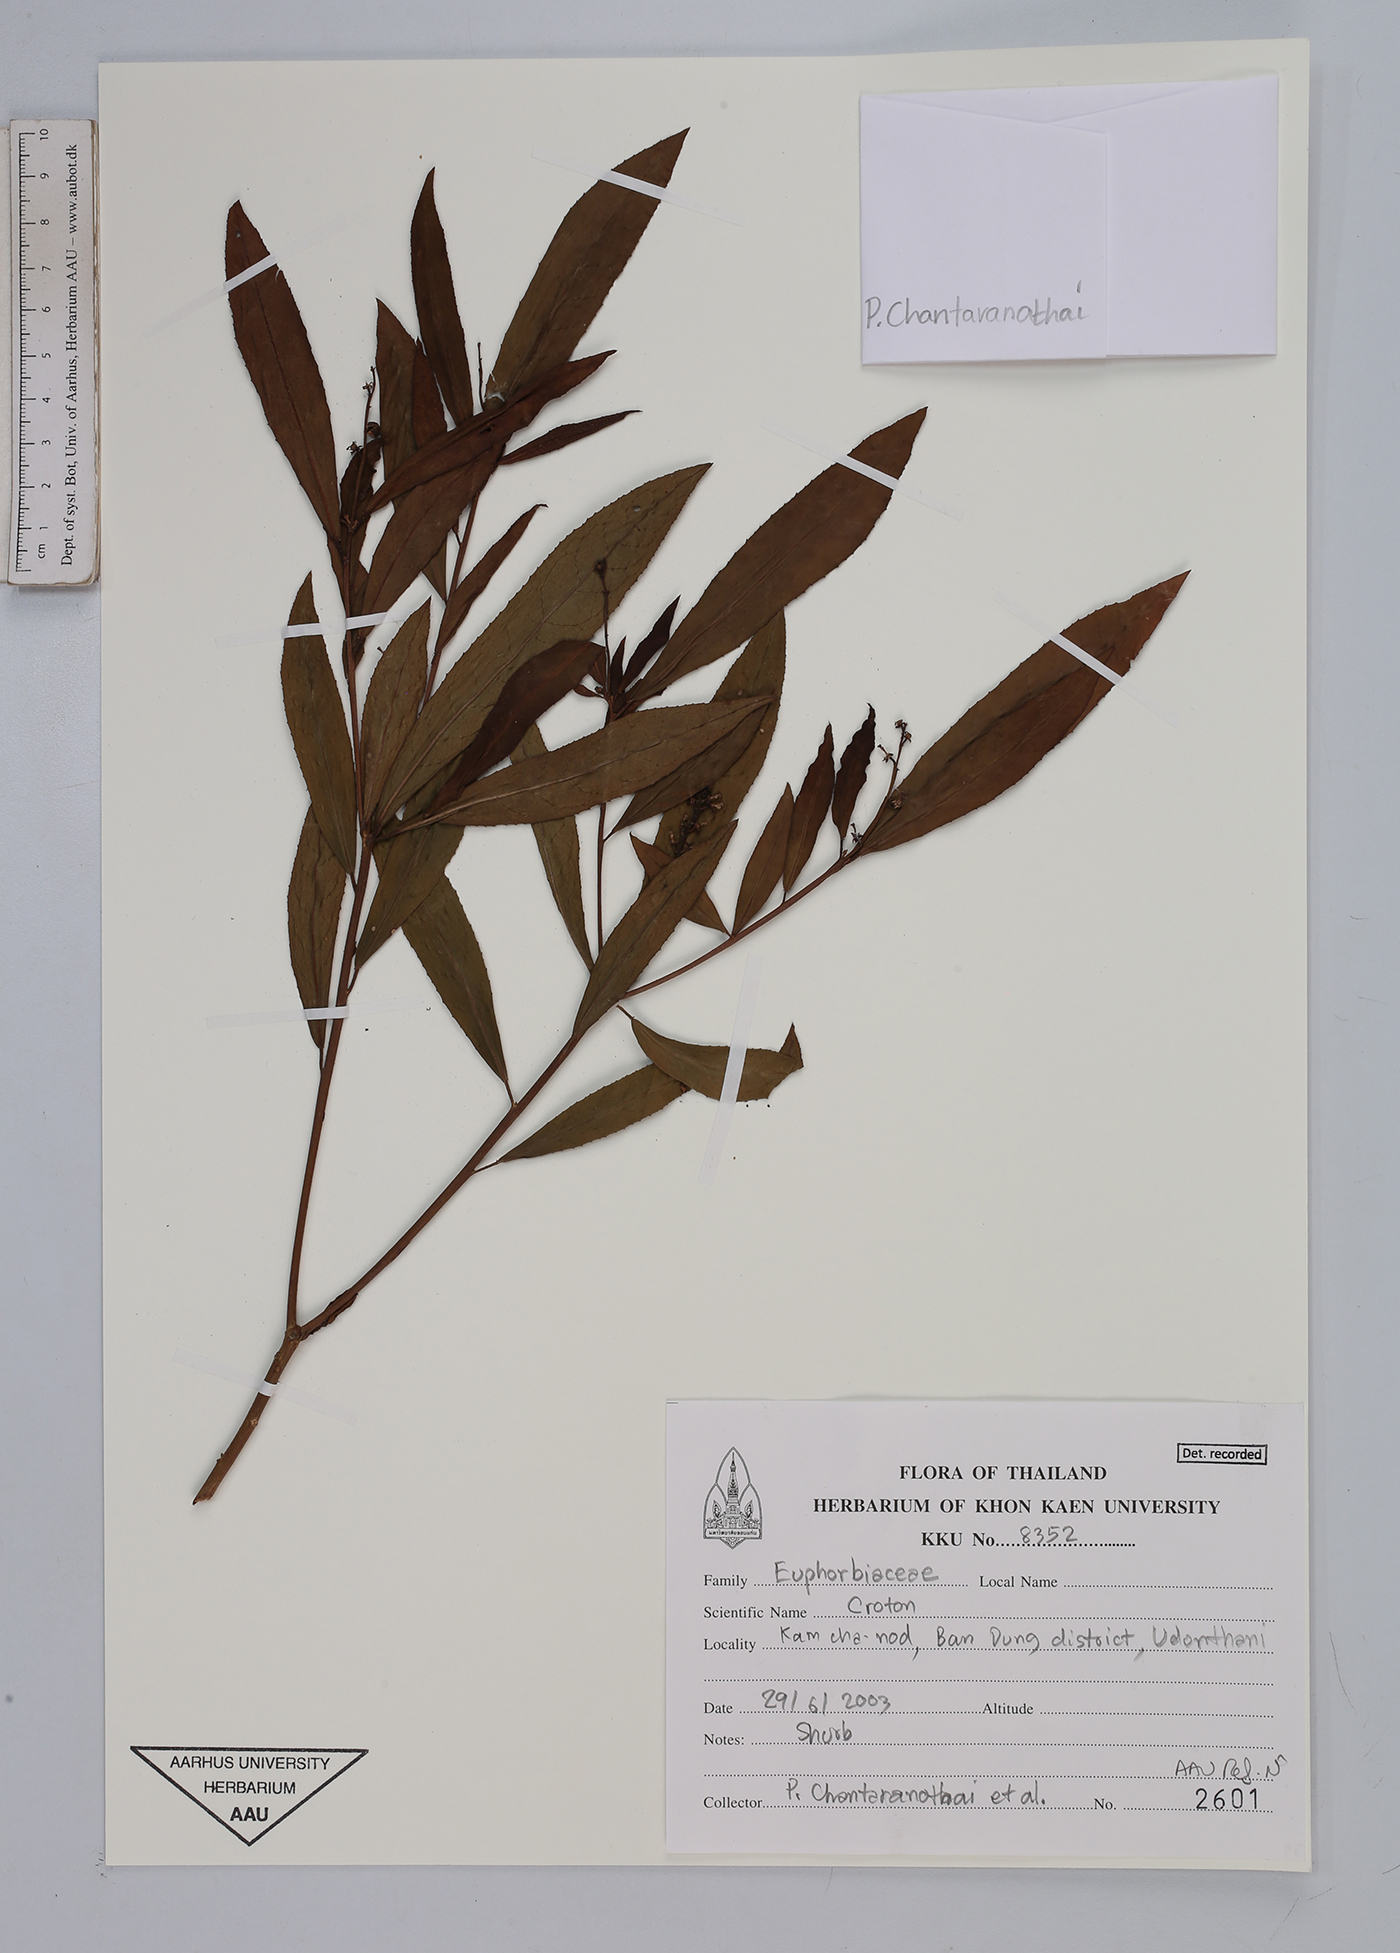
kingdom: Plantae
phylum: Tracheophyta
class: Magnoliopsida
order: Malpighiales
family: Euphorbiaceae
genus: Croton
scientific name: Croton
